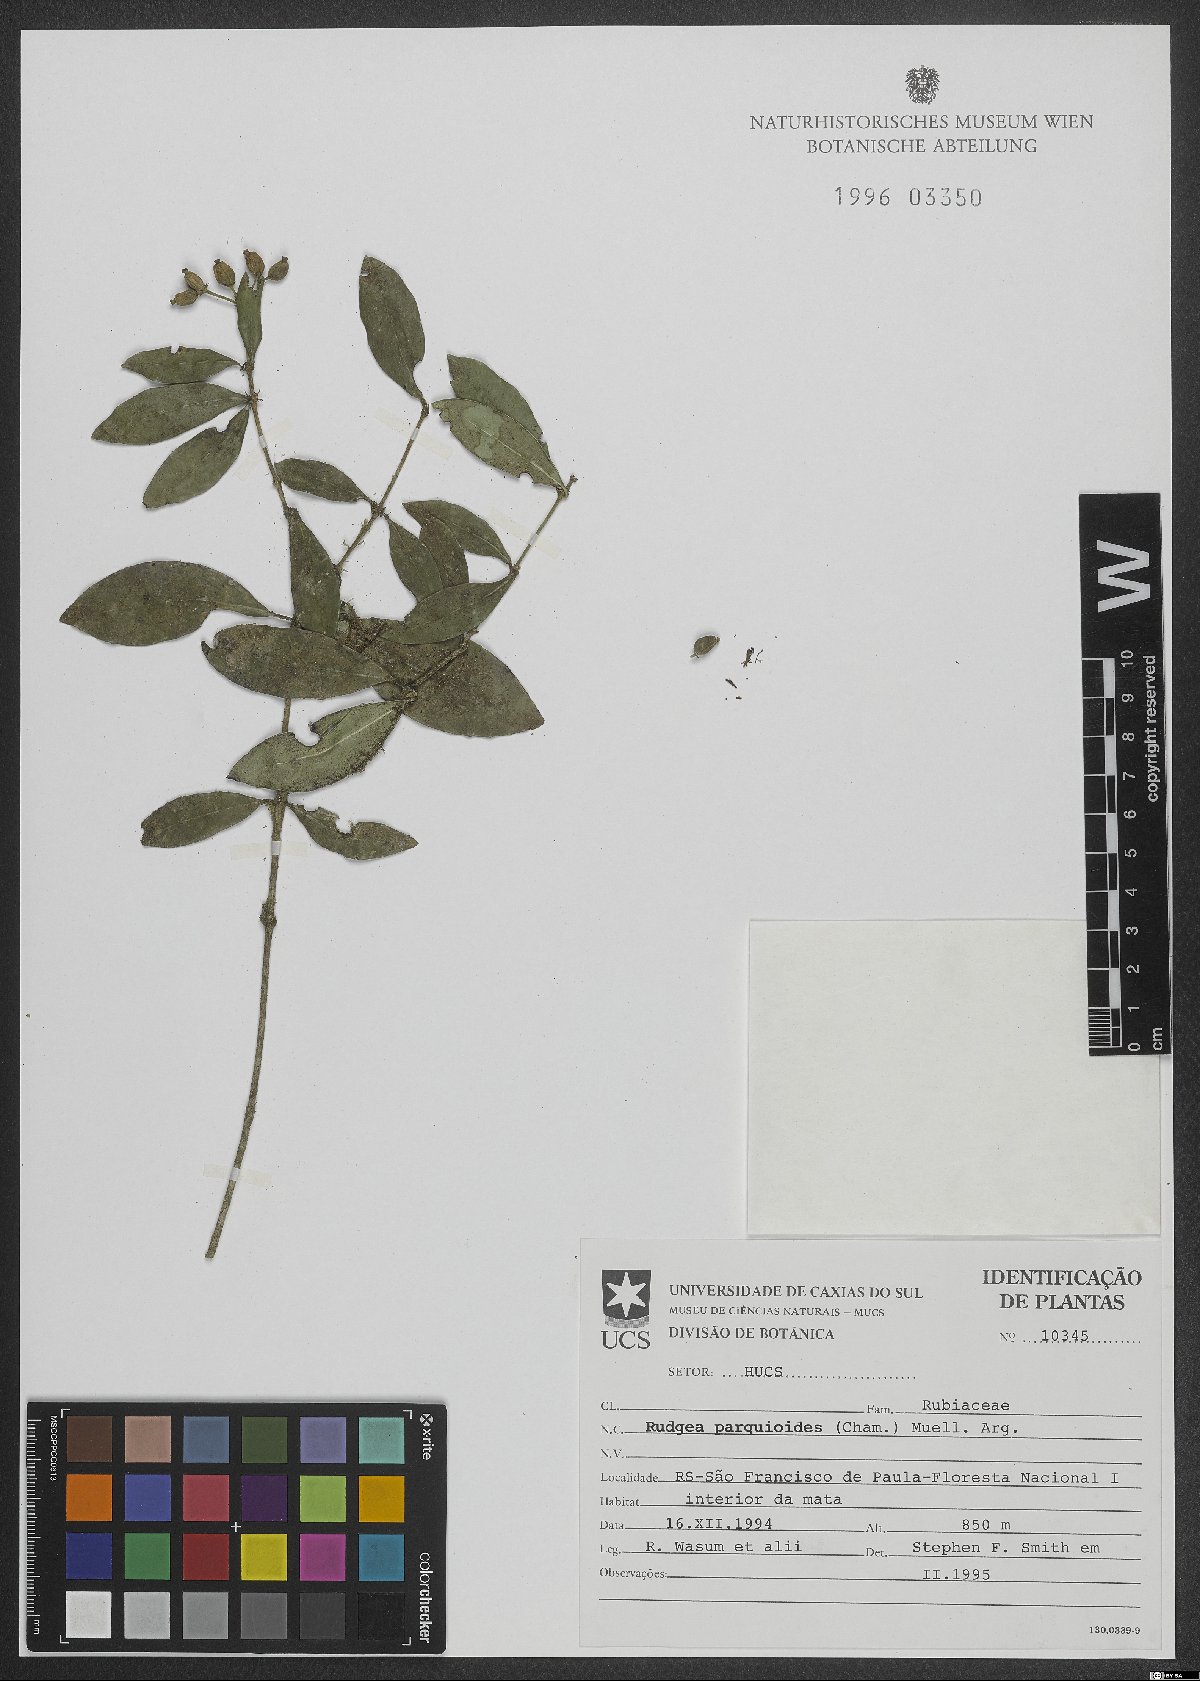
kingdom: Plantae
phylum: Tracheophyta
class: Magnoliopsida
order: Gentianales
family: Rubiaceae
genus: Rudgea
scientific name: Rudgea parquioides
